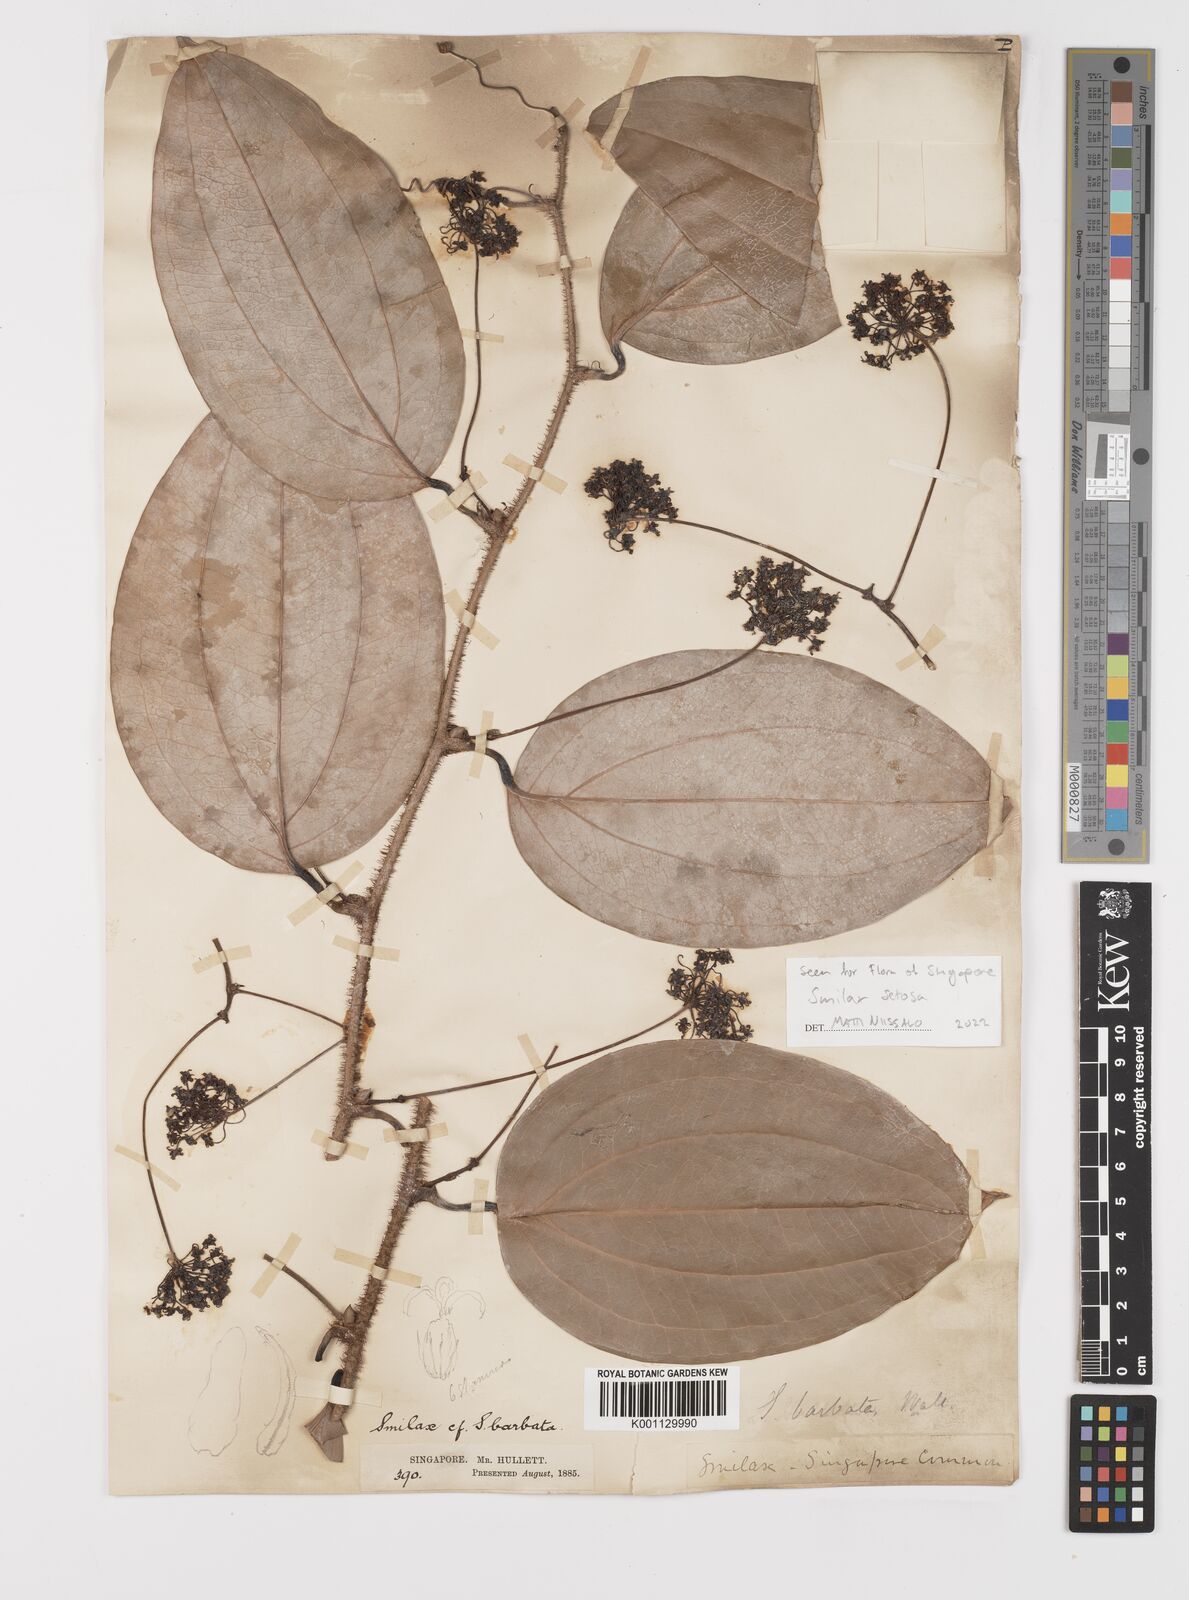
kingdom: Plantae
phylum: Tracheophyta
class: Liliopsida
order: Liliales
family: Smilacaceae
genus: Smilax
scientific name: Smilax setosa
